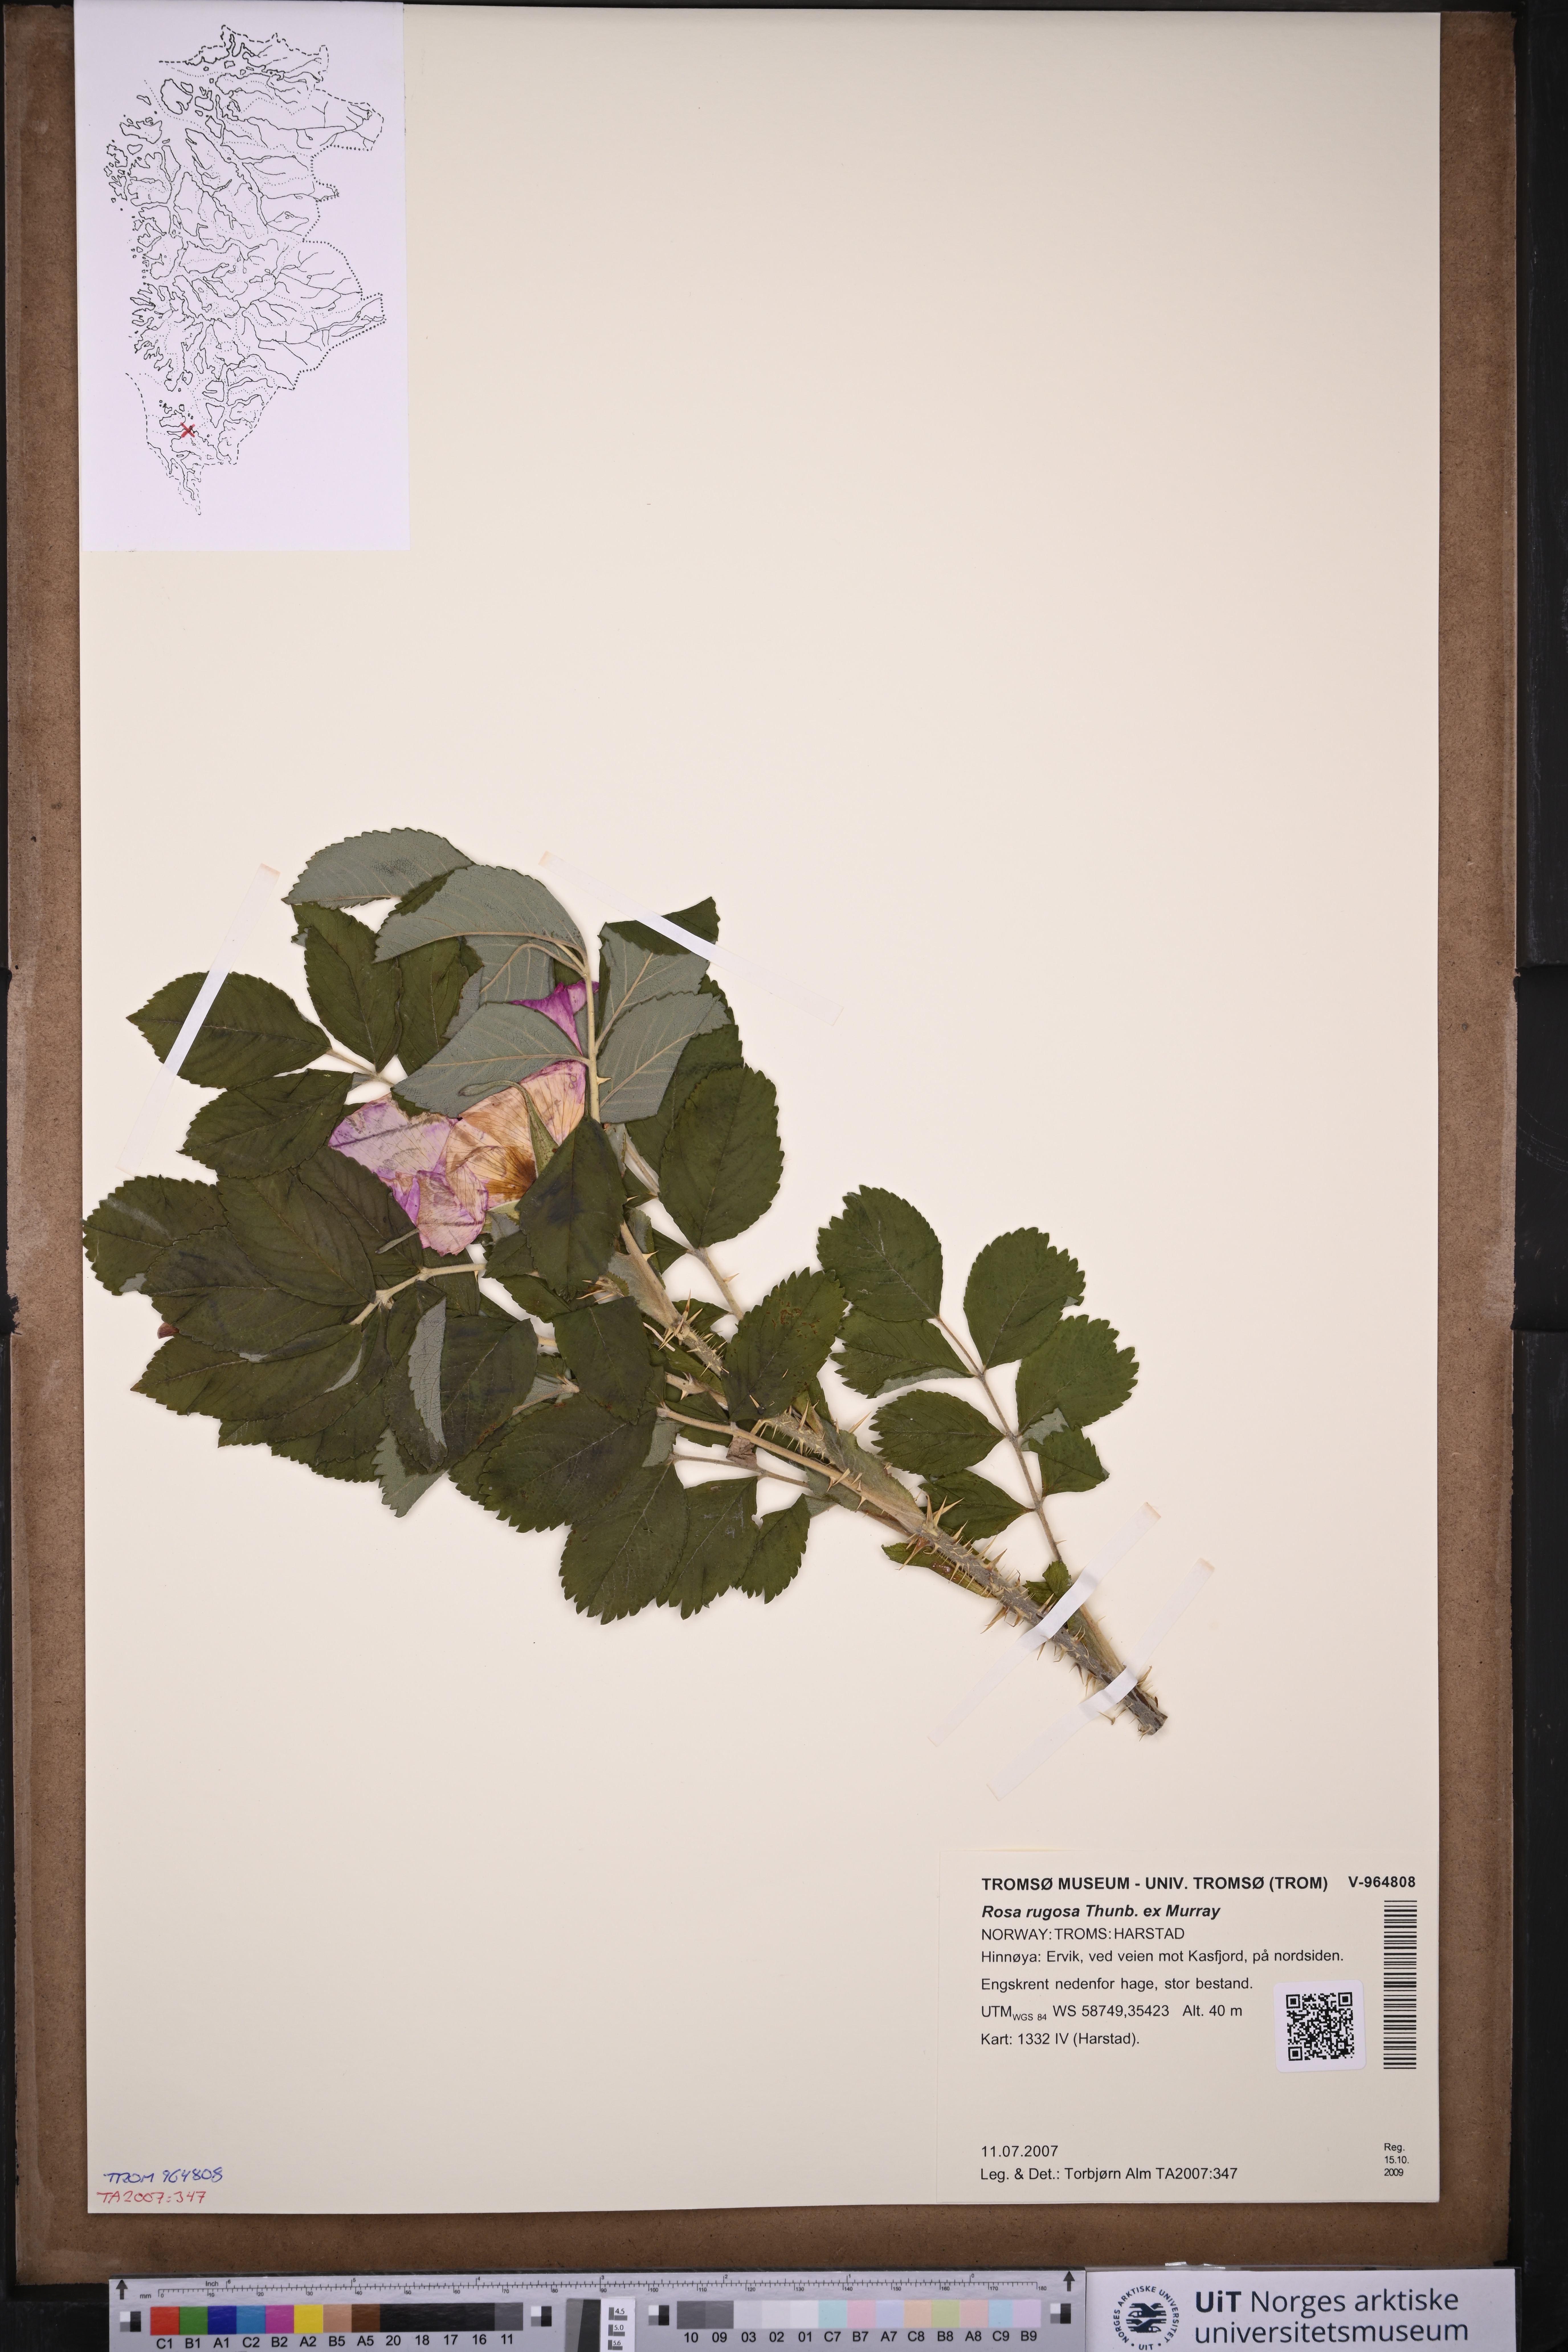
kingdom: Plantae
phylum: Tracheophyta
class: Magnoliopsida
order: Rosales
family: Rosaceae
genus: Rosa
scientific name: Rosa rugosa
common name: Japanese rose
